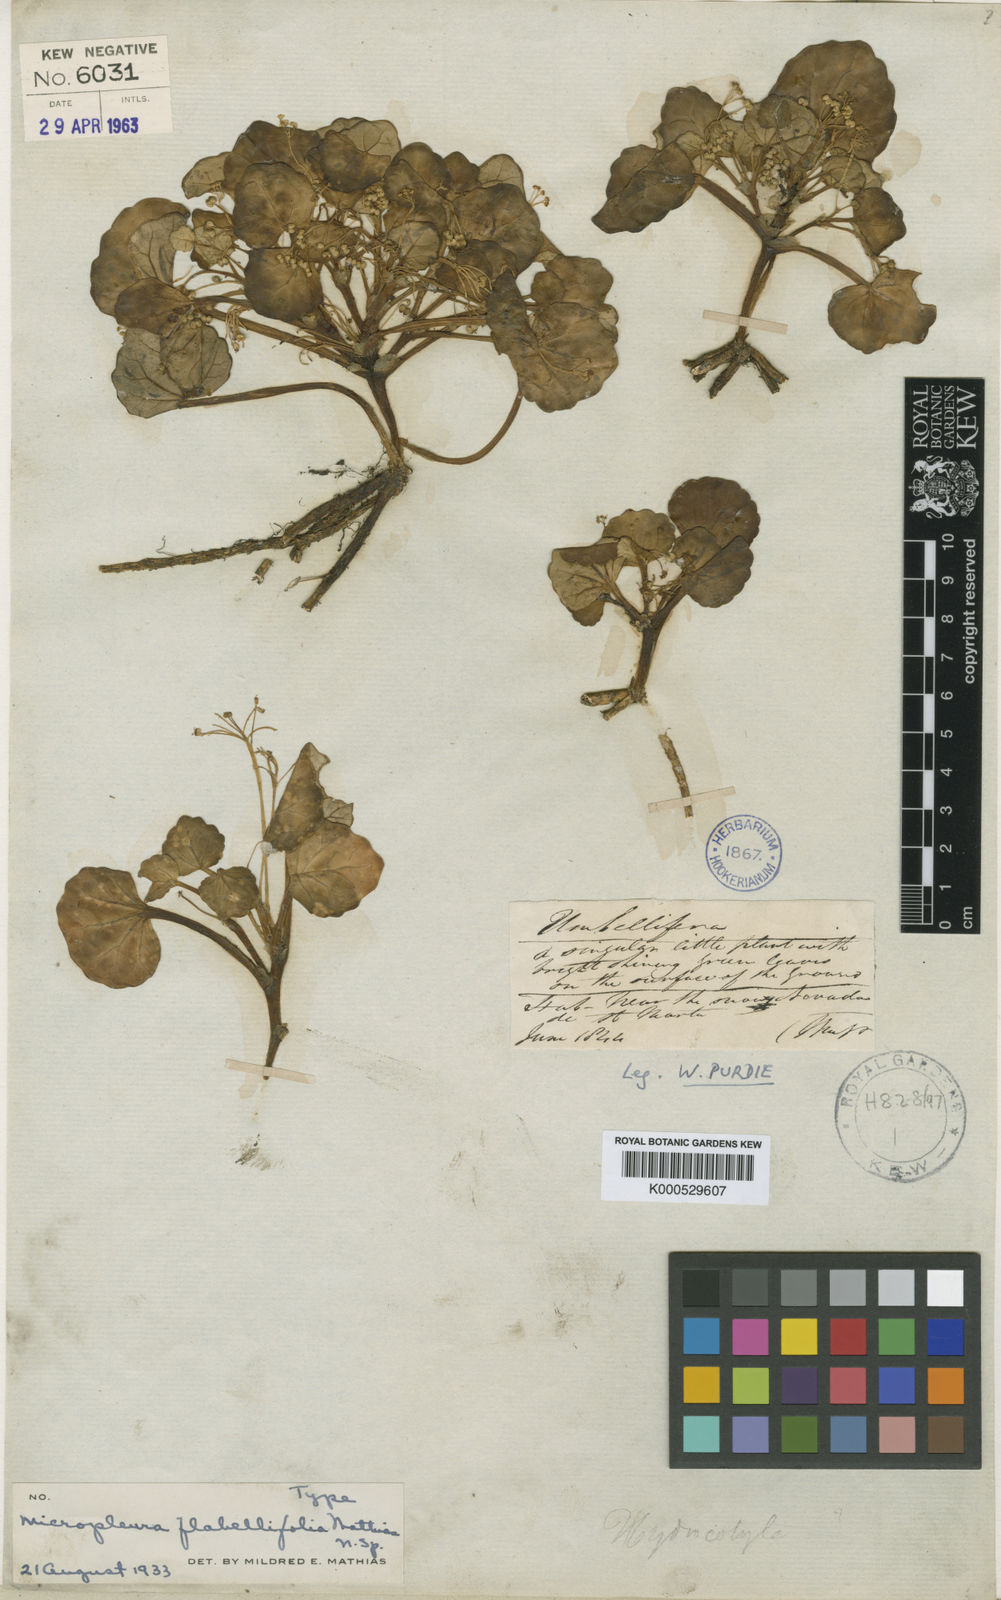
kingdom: Plantae
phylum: Tracheophyta
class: Magnoliopsida
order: Apiales
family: Apiaceae
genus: Micropleura
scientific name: Micropleura flabellifolia
